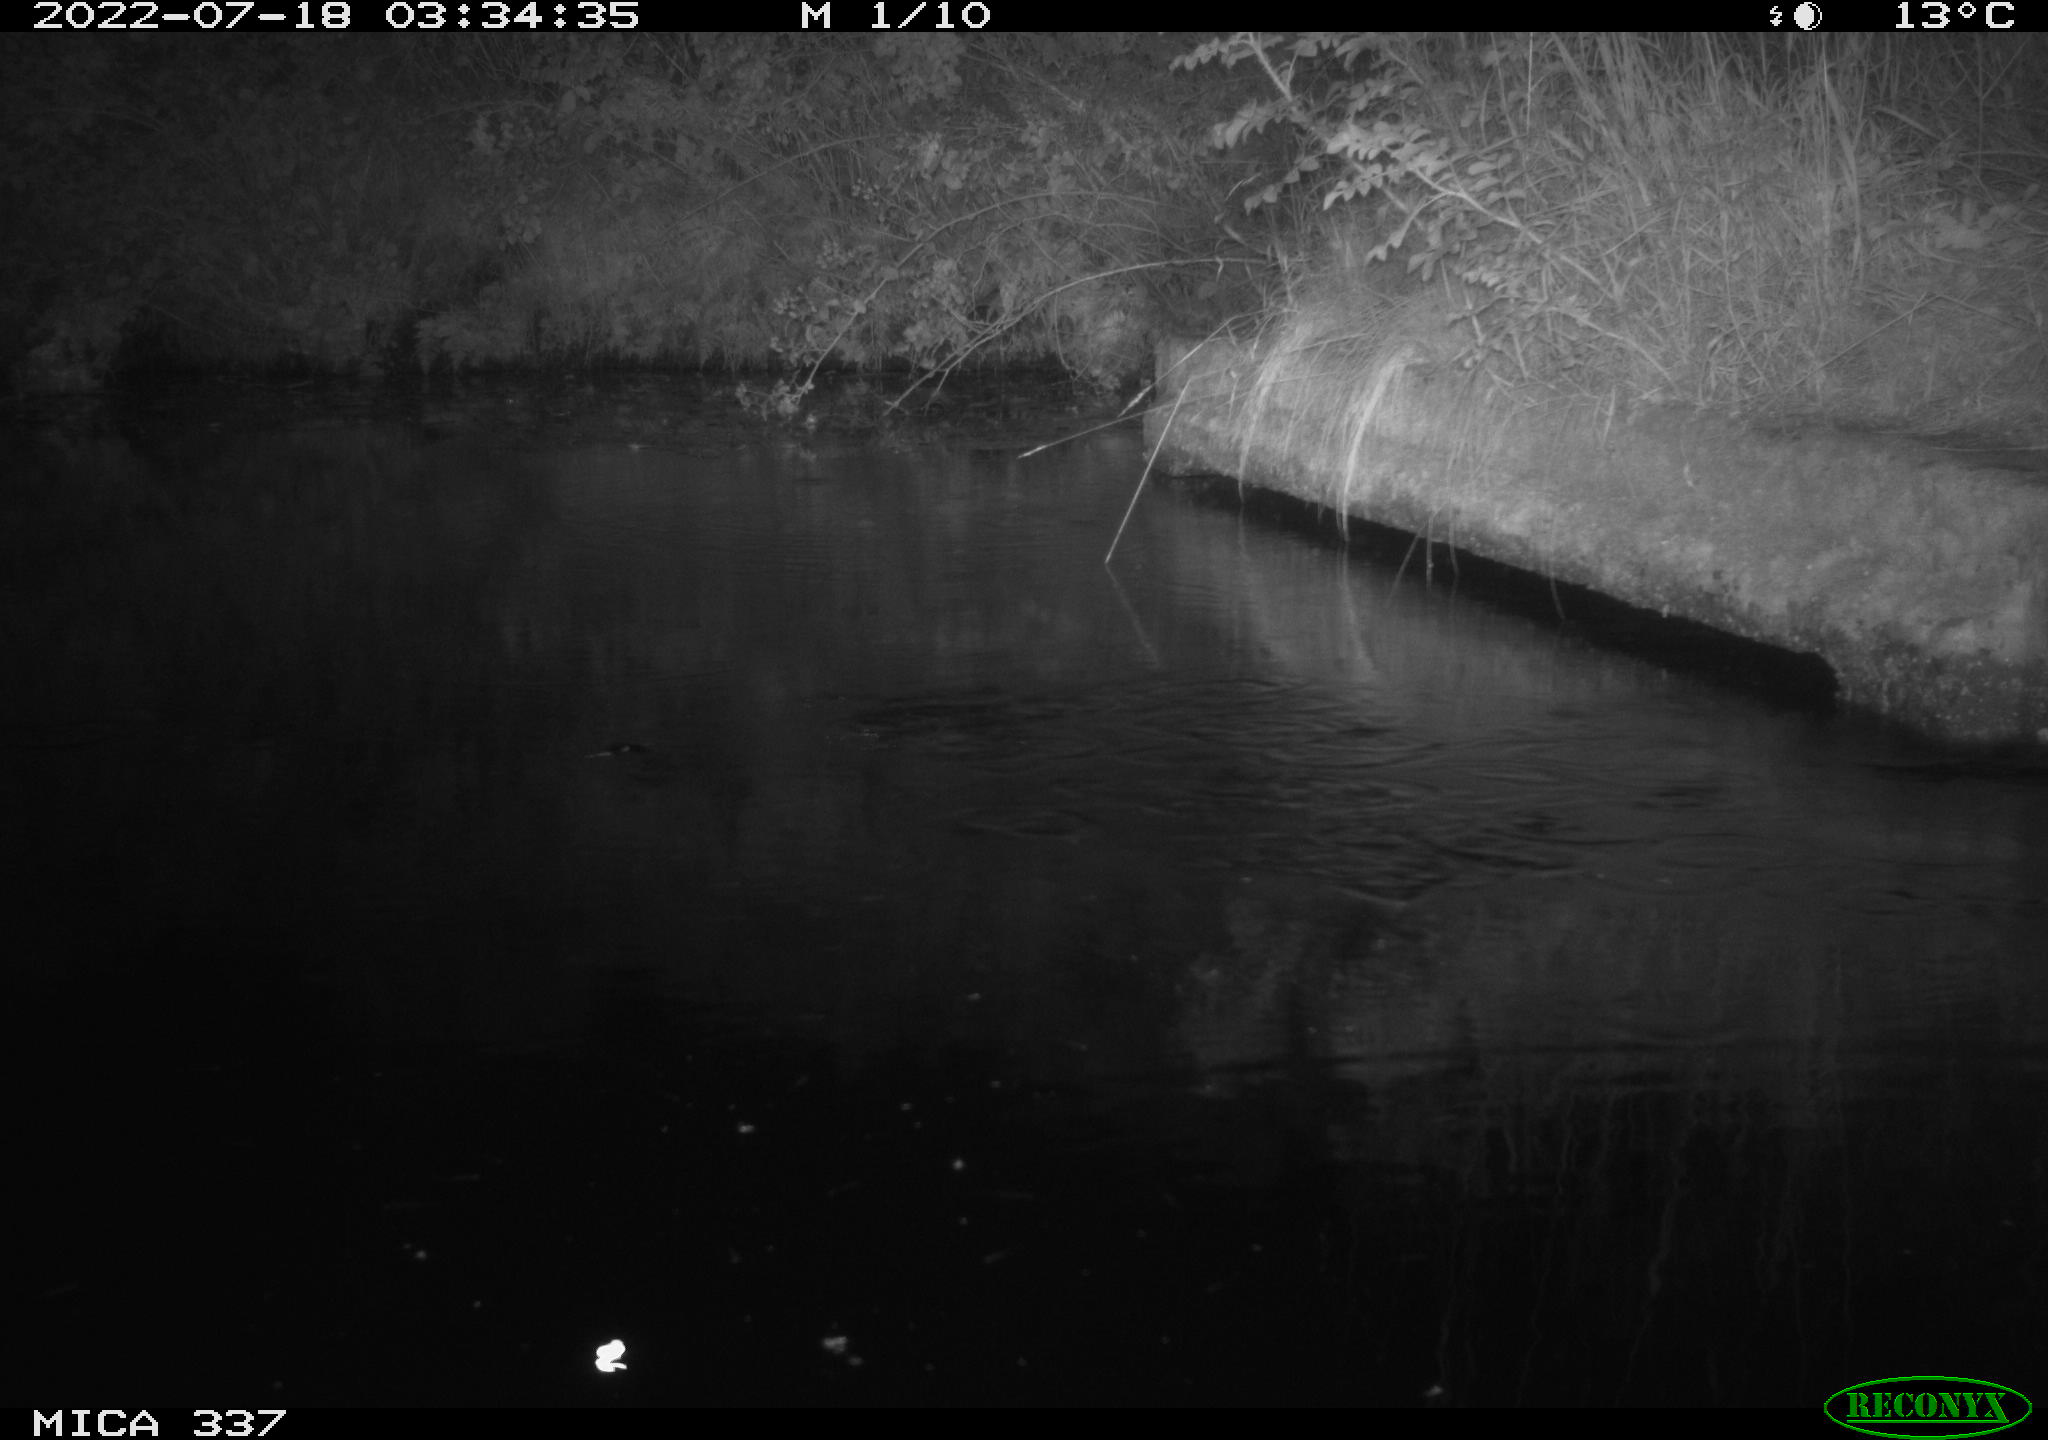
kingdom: Animalia
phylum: Chordata
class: Mammalia
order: Rodentia
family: Muridae
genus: Rattus
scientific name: Rattus norvegicus
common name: Brown rat
